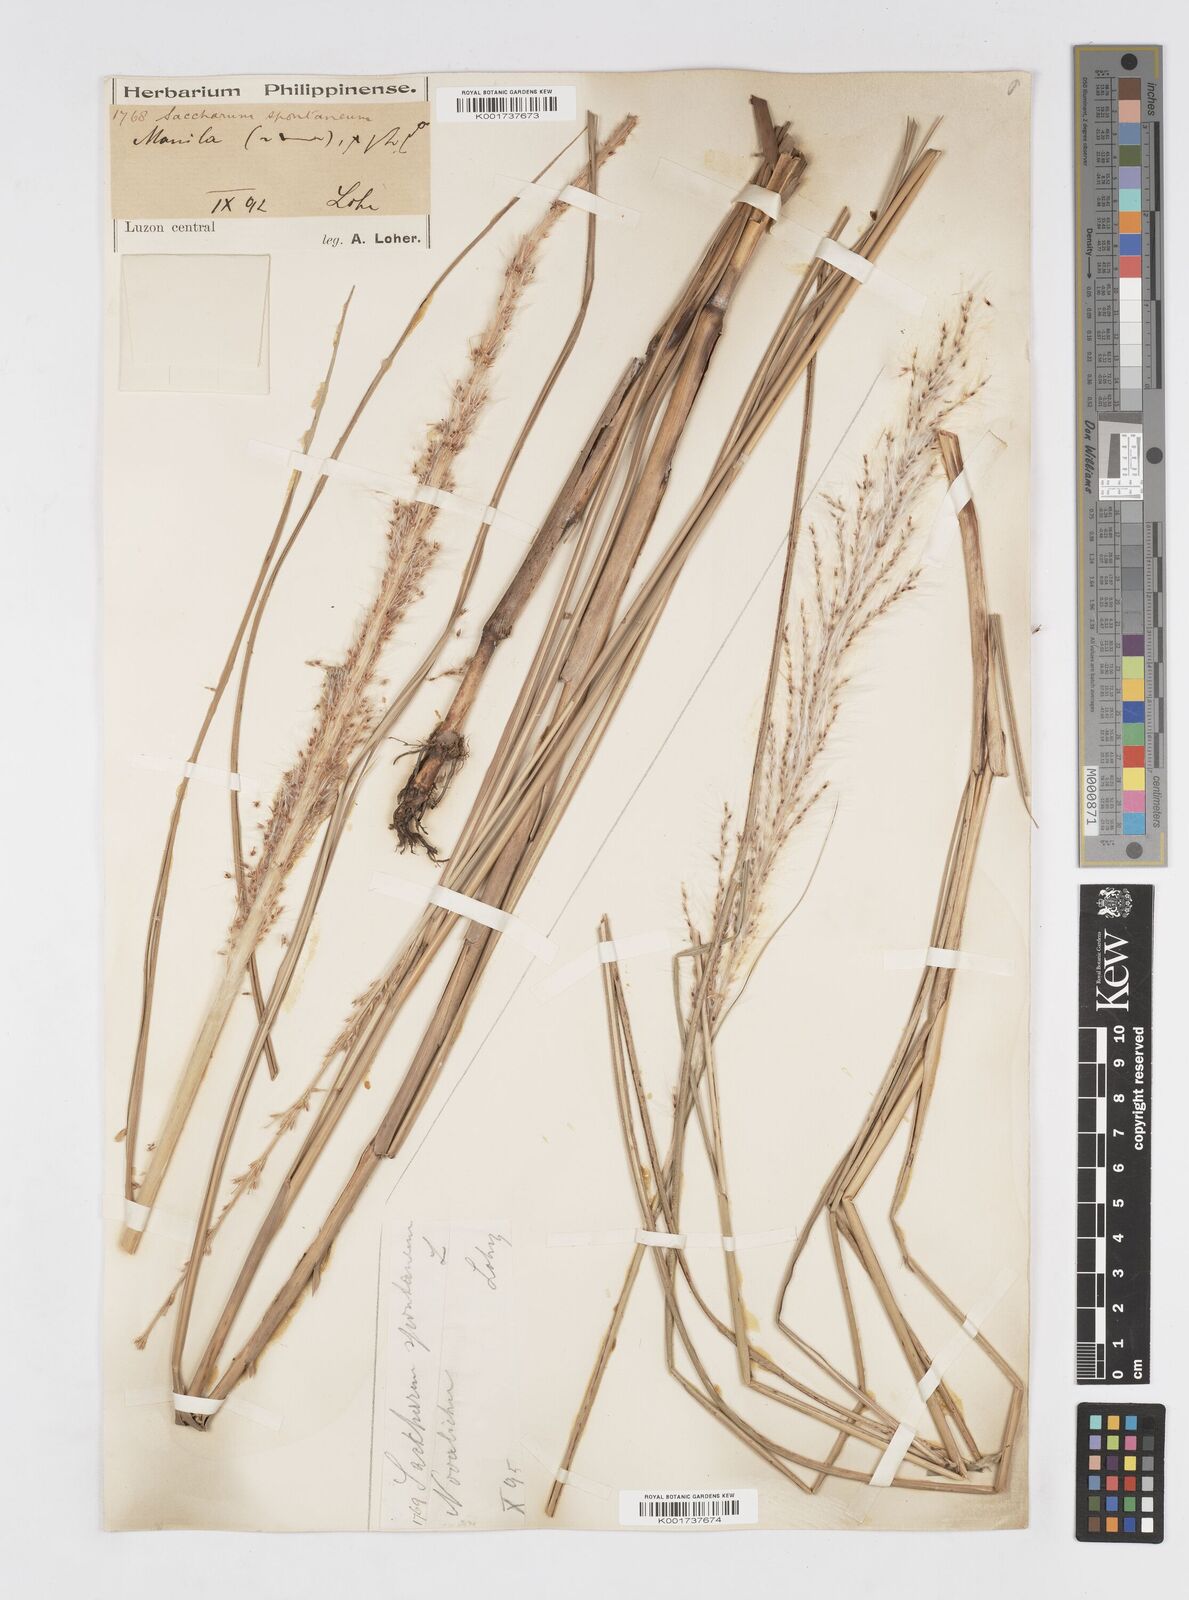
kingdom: Plantae
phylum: Tracheophyta
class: Liliopsida
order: Poales
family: Poaceae
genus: Saccharum
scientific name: Saccharum spontaneum
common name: Wild sugarcane
